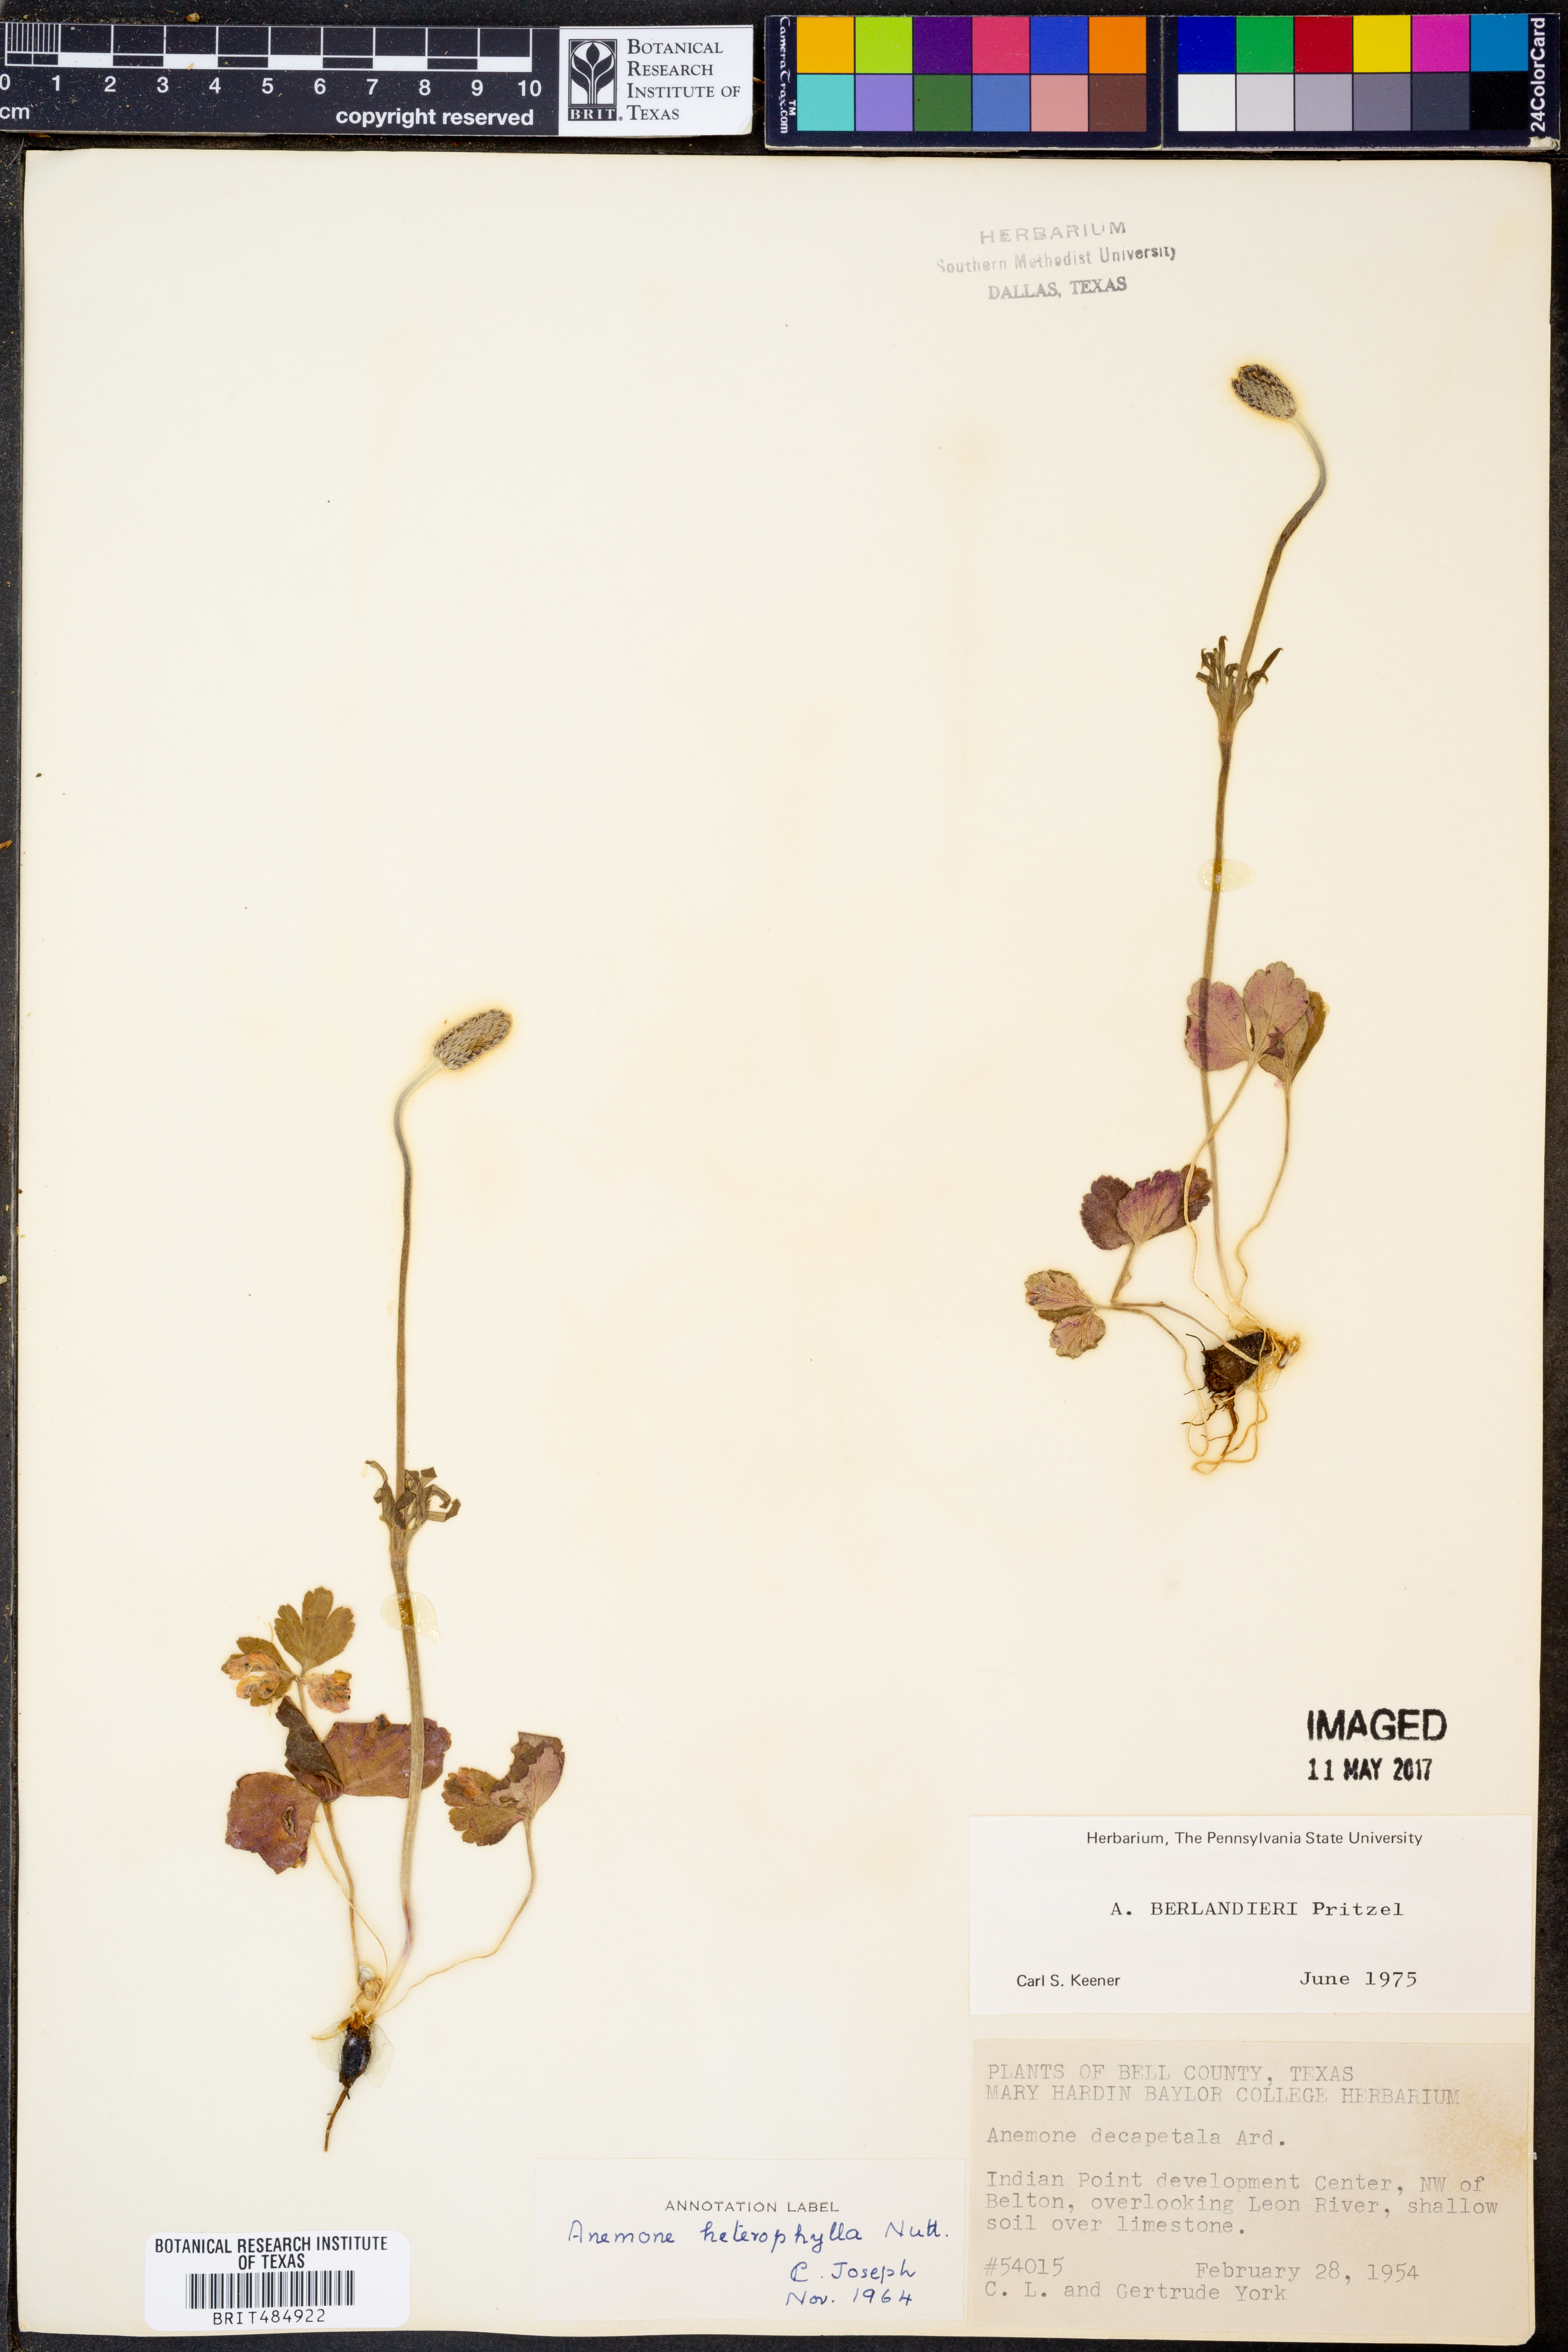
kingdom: Plantae
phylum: Tracheophyta
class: Magnoliopsida
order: Ranunculales
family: Ranunculaceae
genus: Anemone
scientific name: Anemone berlandieri
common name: Ten-petal anemone
